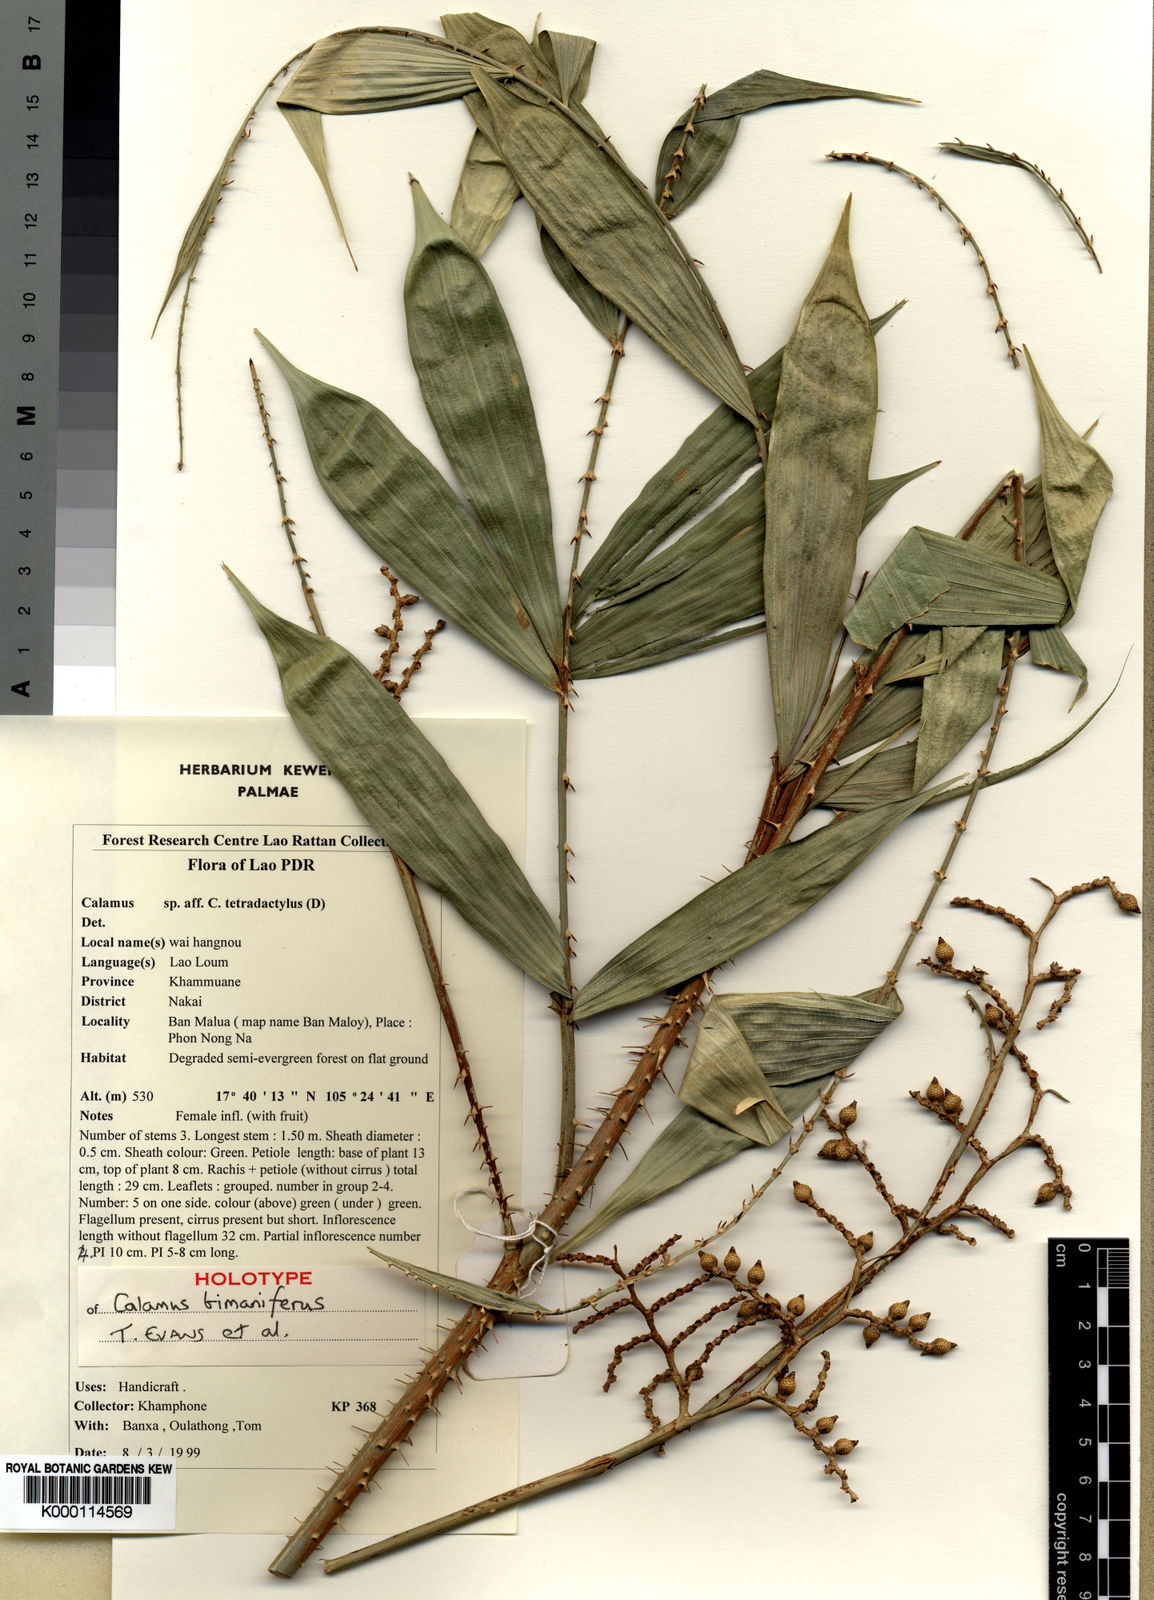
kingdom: Plantae
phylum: Tracheophyta
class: Liliopsida
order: Arecales
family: Arecaceae
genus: Calamus
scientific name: Calamus
